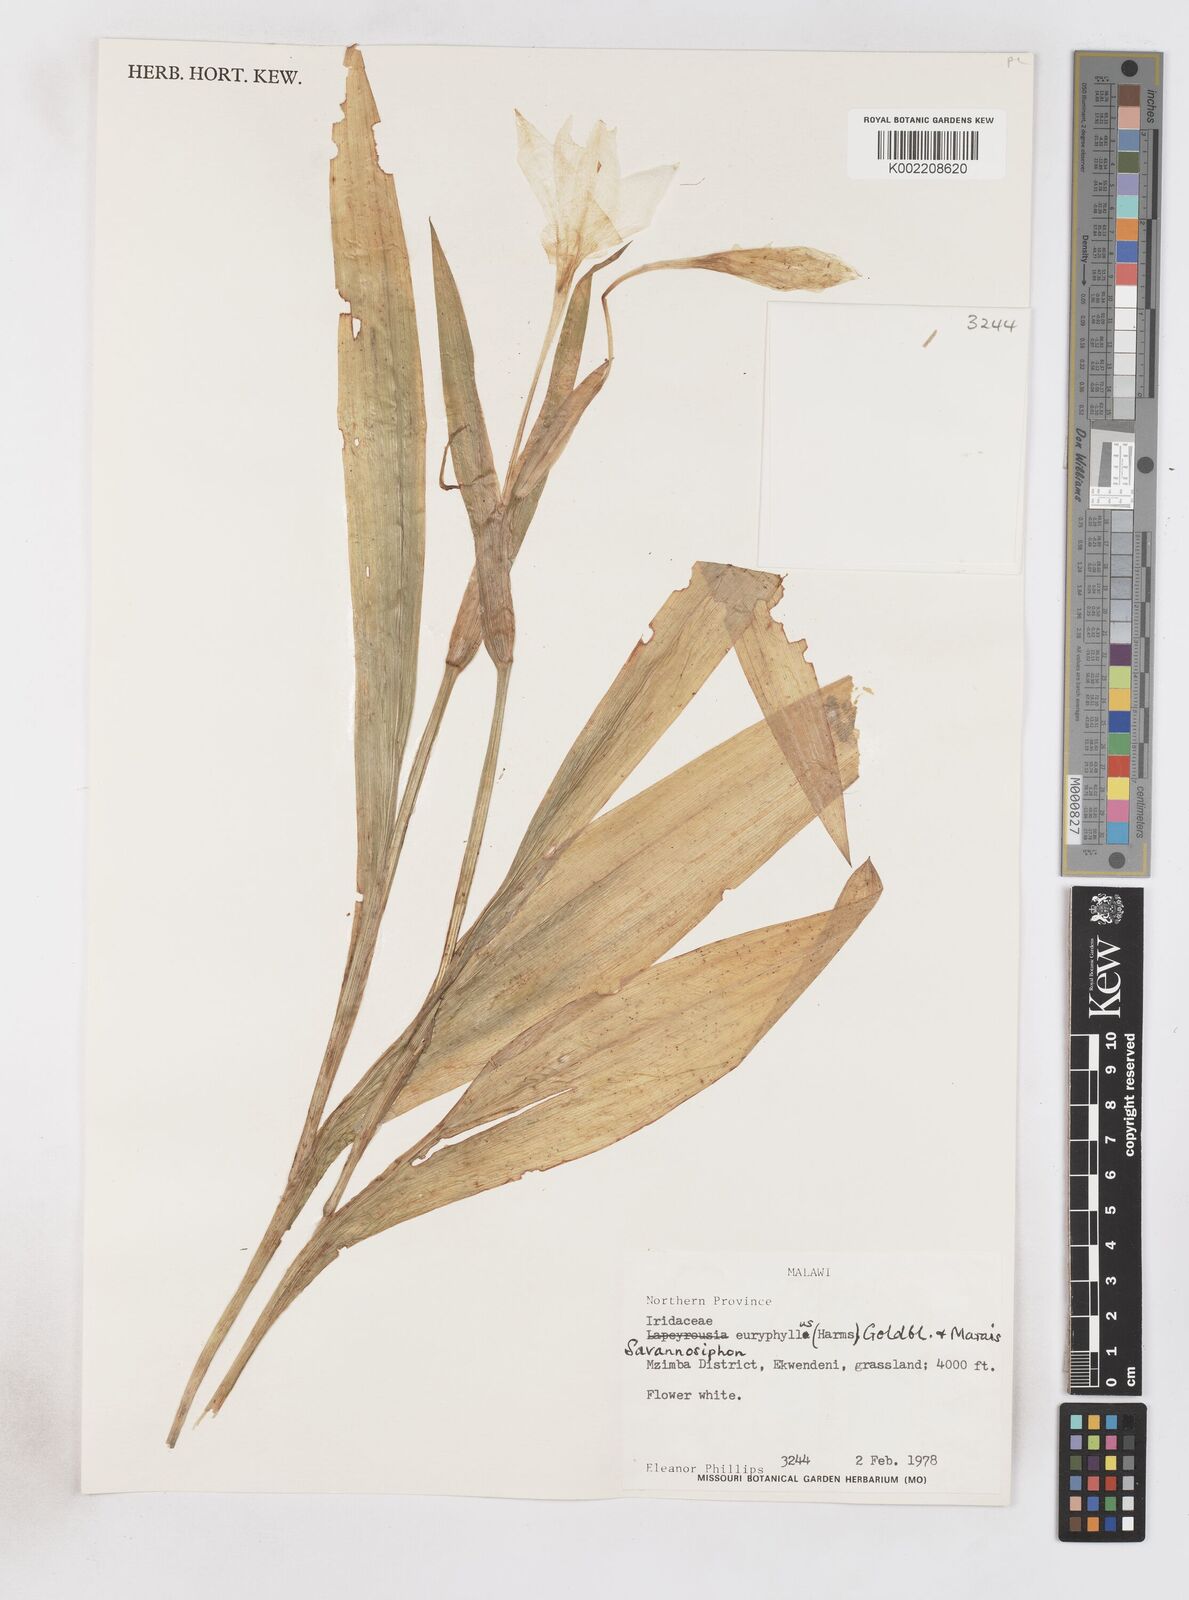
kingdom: Plantae
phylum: Tracheophyta
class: Liliopsida
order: Asparagales
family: Iridaceae
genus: Savannosiphon
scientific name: Savannosiphon euryphylla
